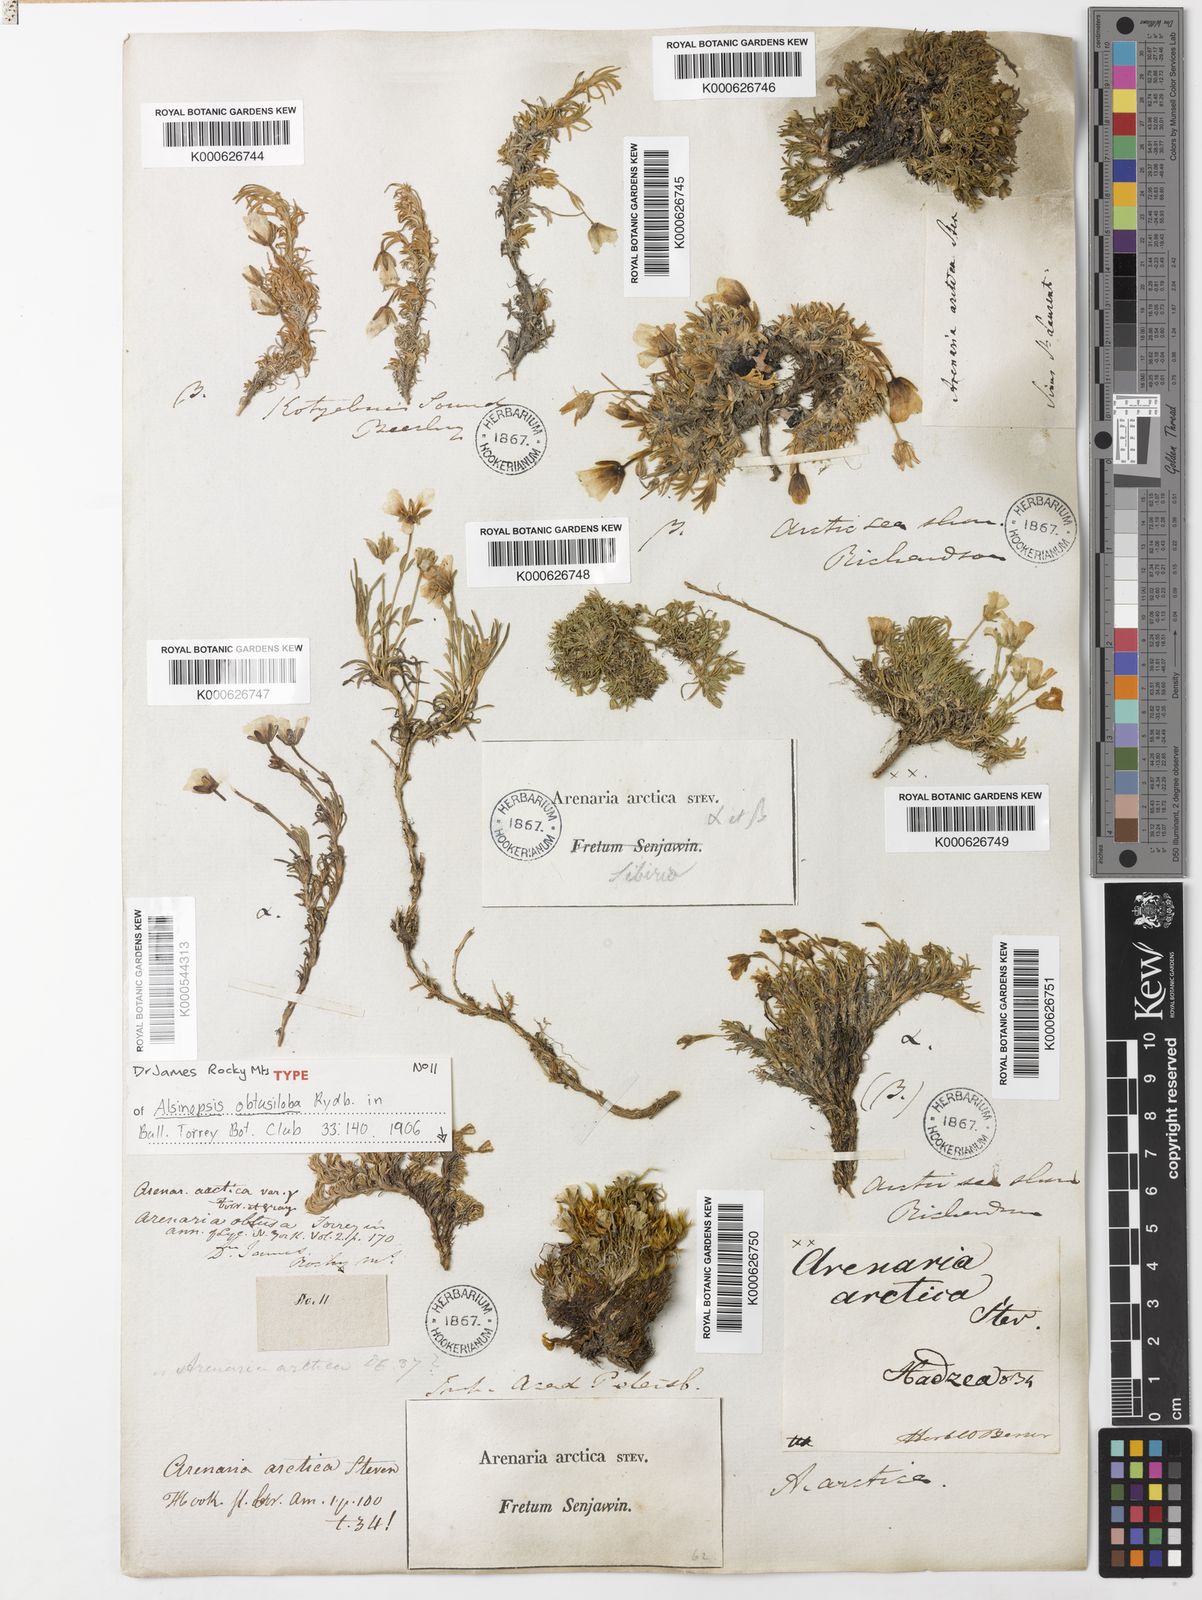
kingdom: Plantae
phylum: Tracheophyta
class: Magnoliopsida
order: Caryophyllales
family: Caryophyllaceae
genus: Cherleria
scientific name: Cherleria obtusiloba
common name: Alpine stitchwort
